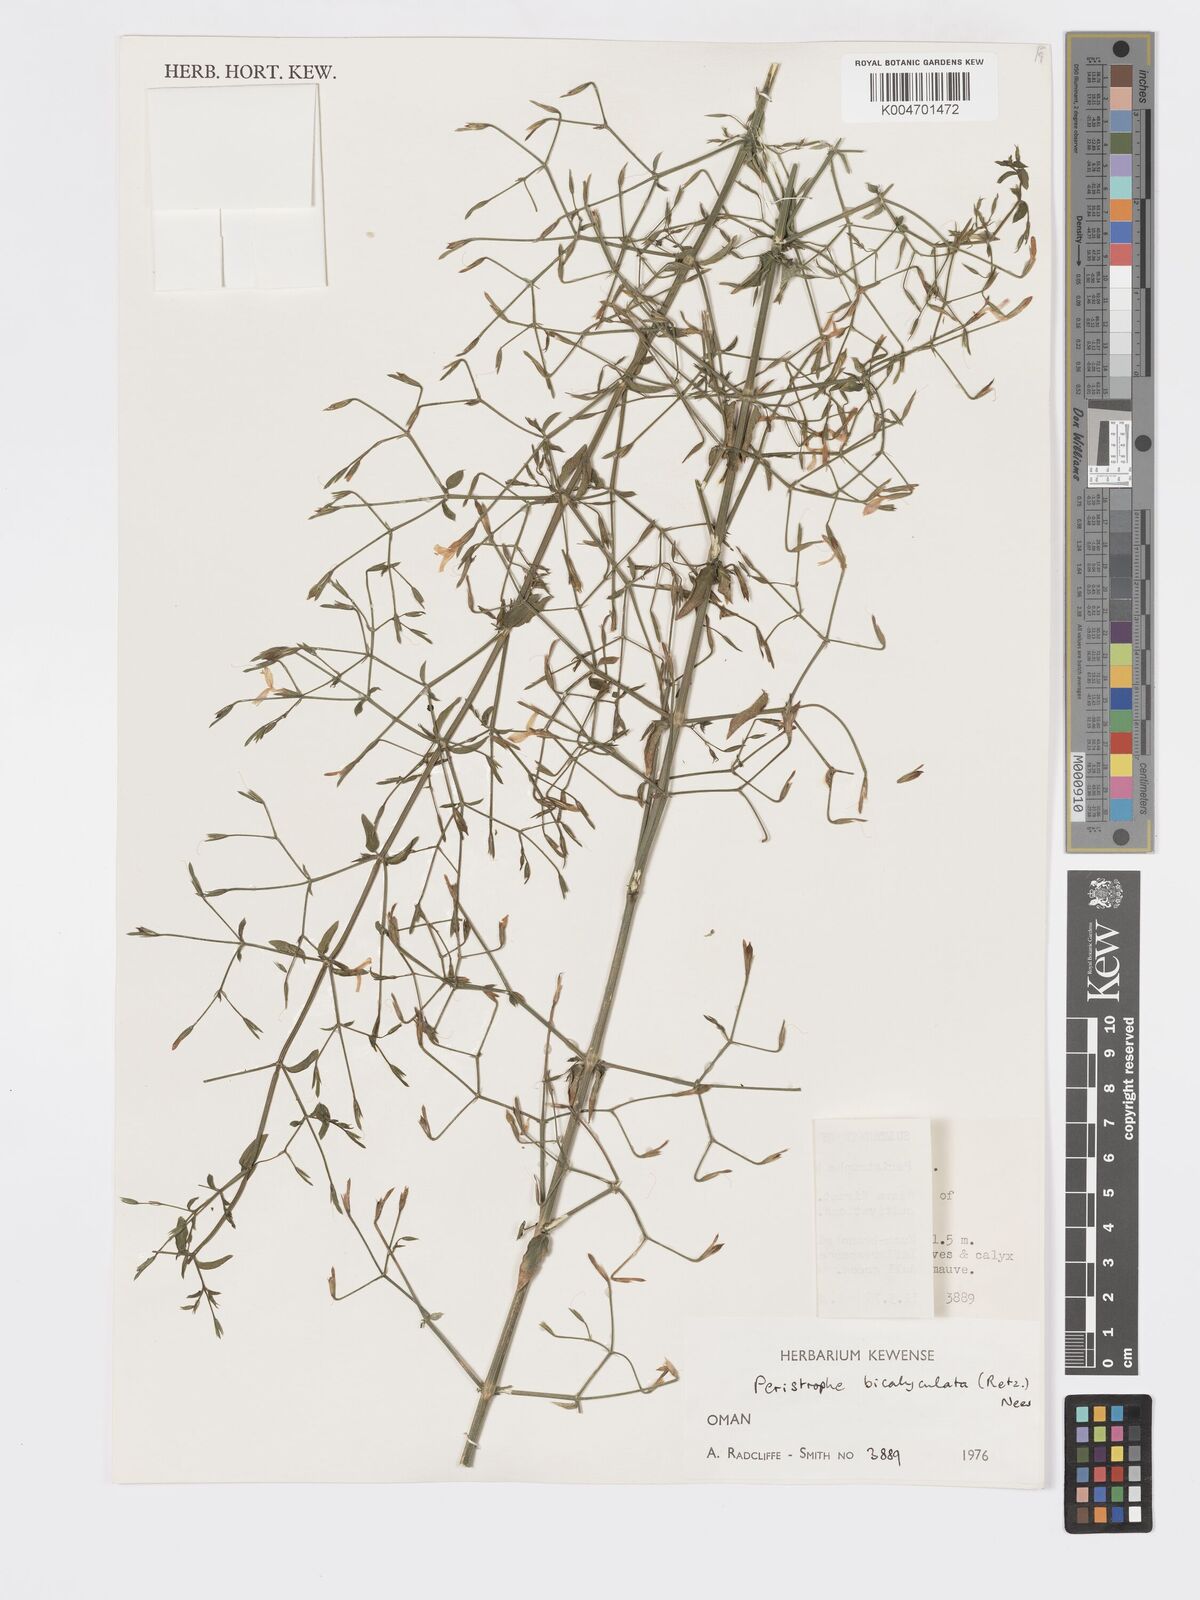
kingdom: Plantae
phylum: Tracheophyta
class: Magnoliopsida
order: Lamiales
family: Acanthaceae
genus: Dicliptera
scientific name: Dicliptera paniculata
